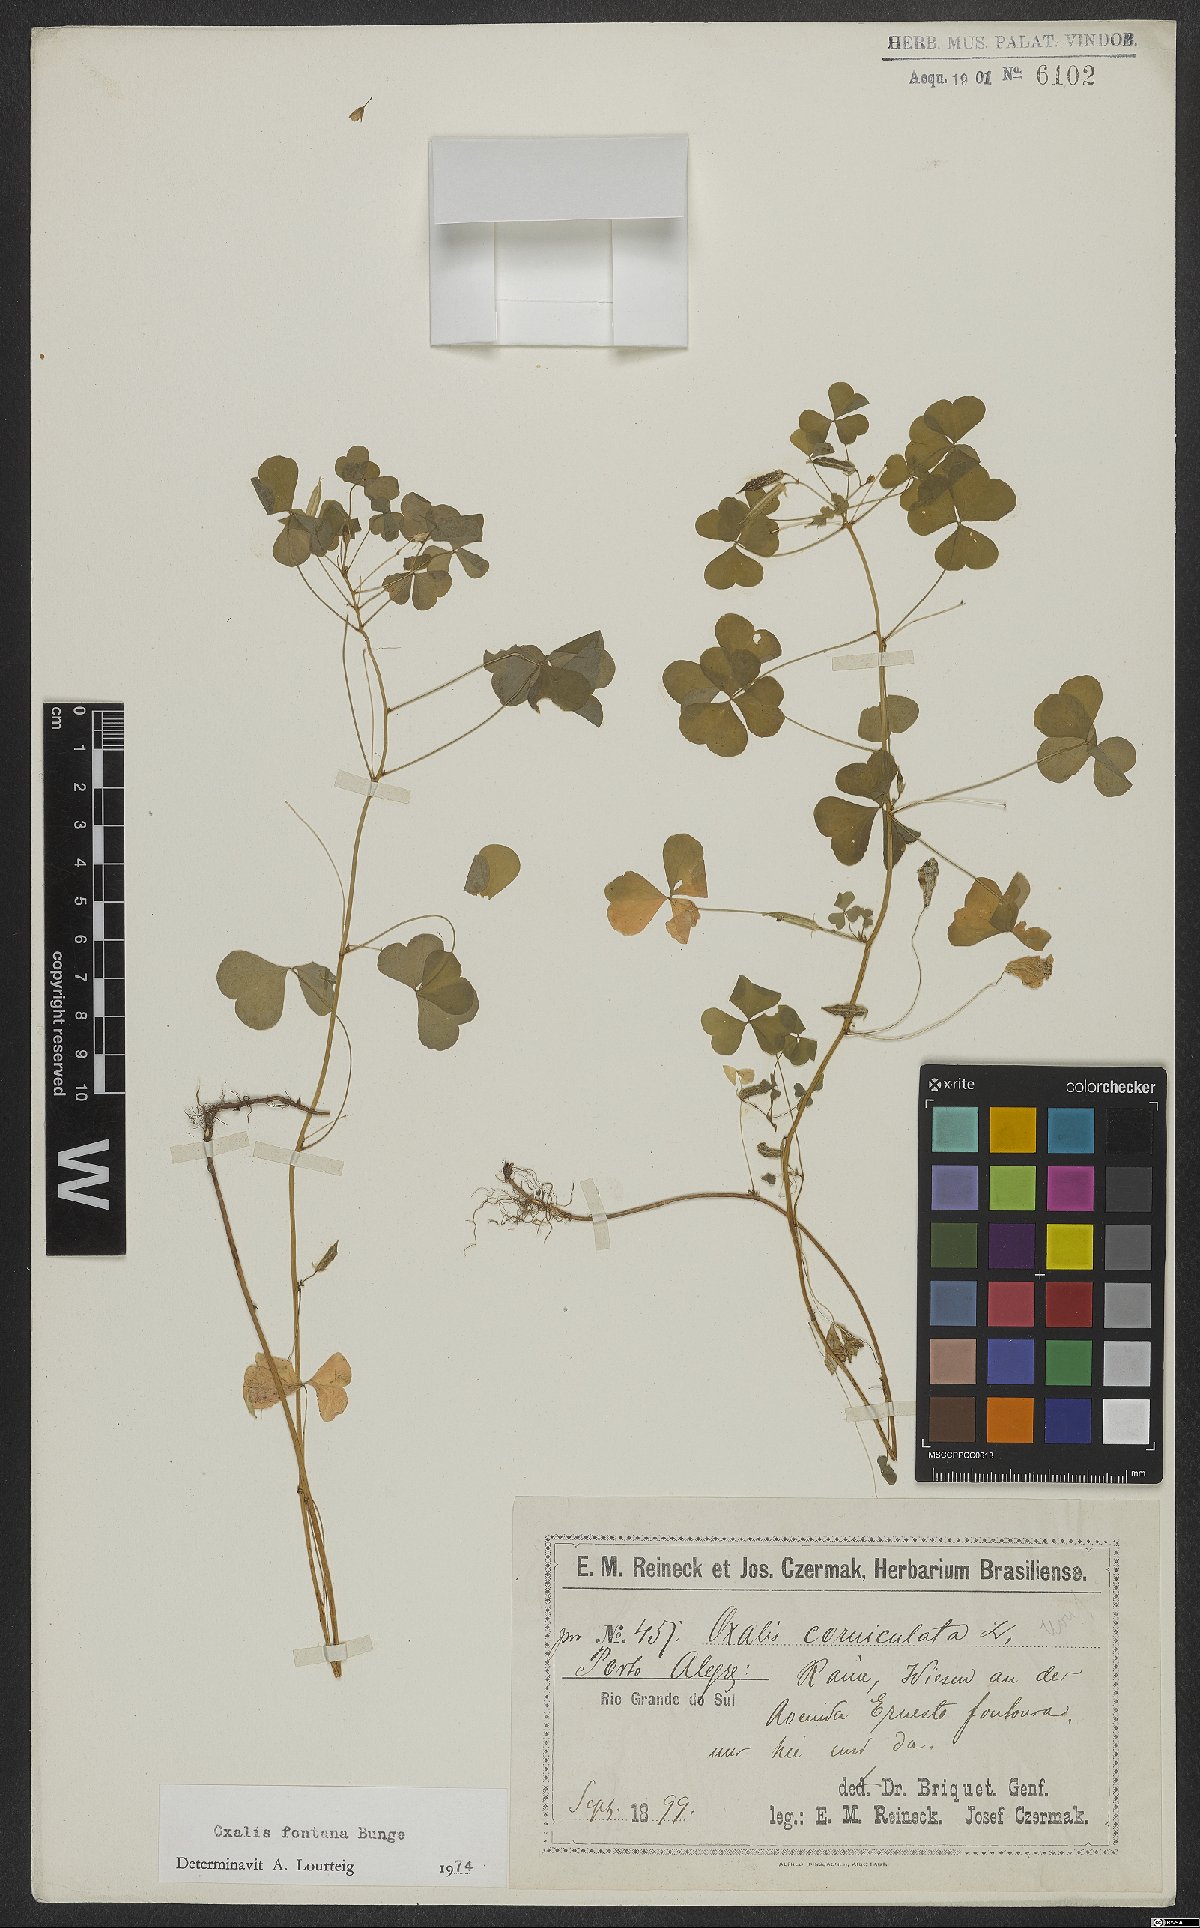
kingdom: Plantae
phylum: Tracheophyta
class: Magnoliopsida
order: Oxalidales
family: Oxalidaceae
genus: Oxalis
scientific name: Oxalis stricta
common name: Upright yellow-sorrel
